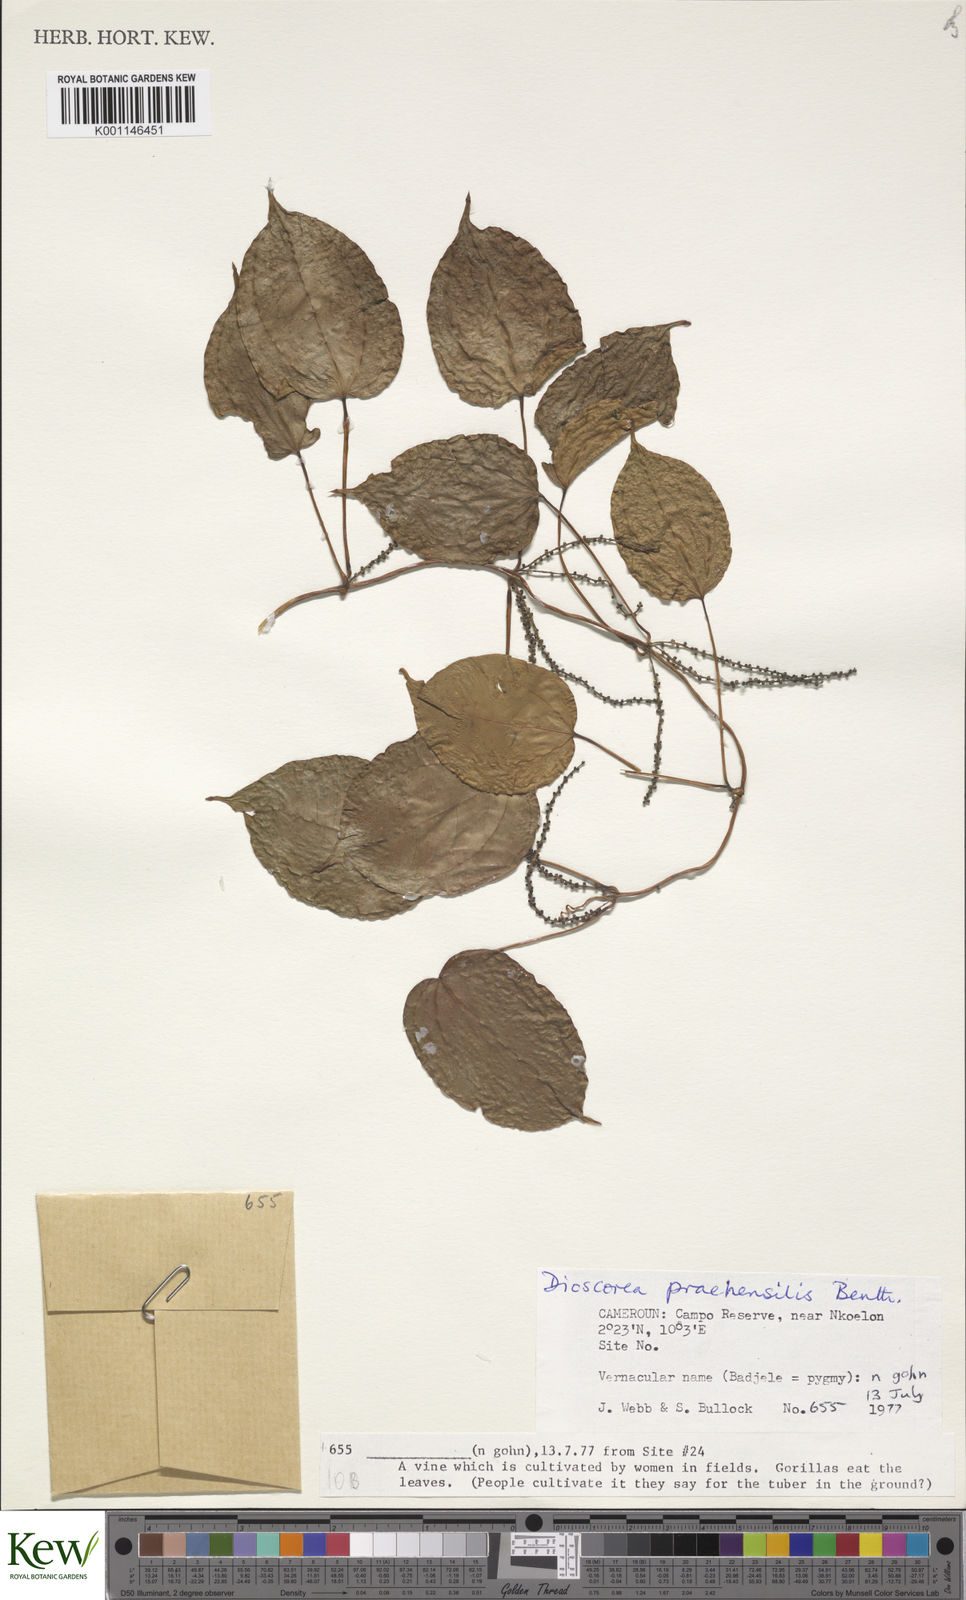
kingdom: Plantae
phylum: Tracheophyta
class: Liliopsida
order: Dioscoreales
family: Dioscoreaceae
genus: Dioscorea
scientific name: Dioscorea praehensilis
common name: Bush yam
